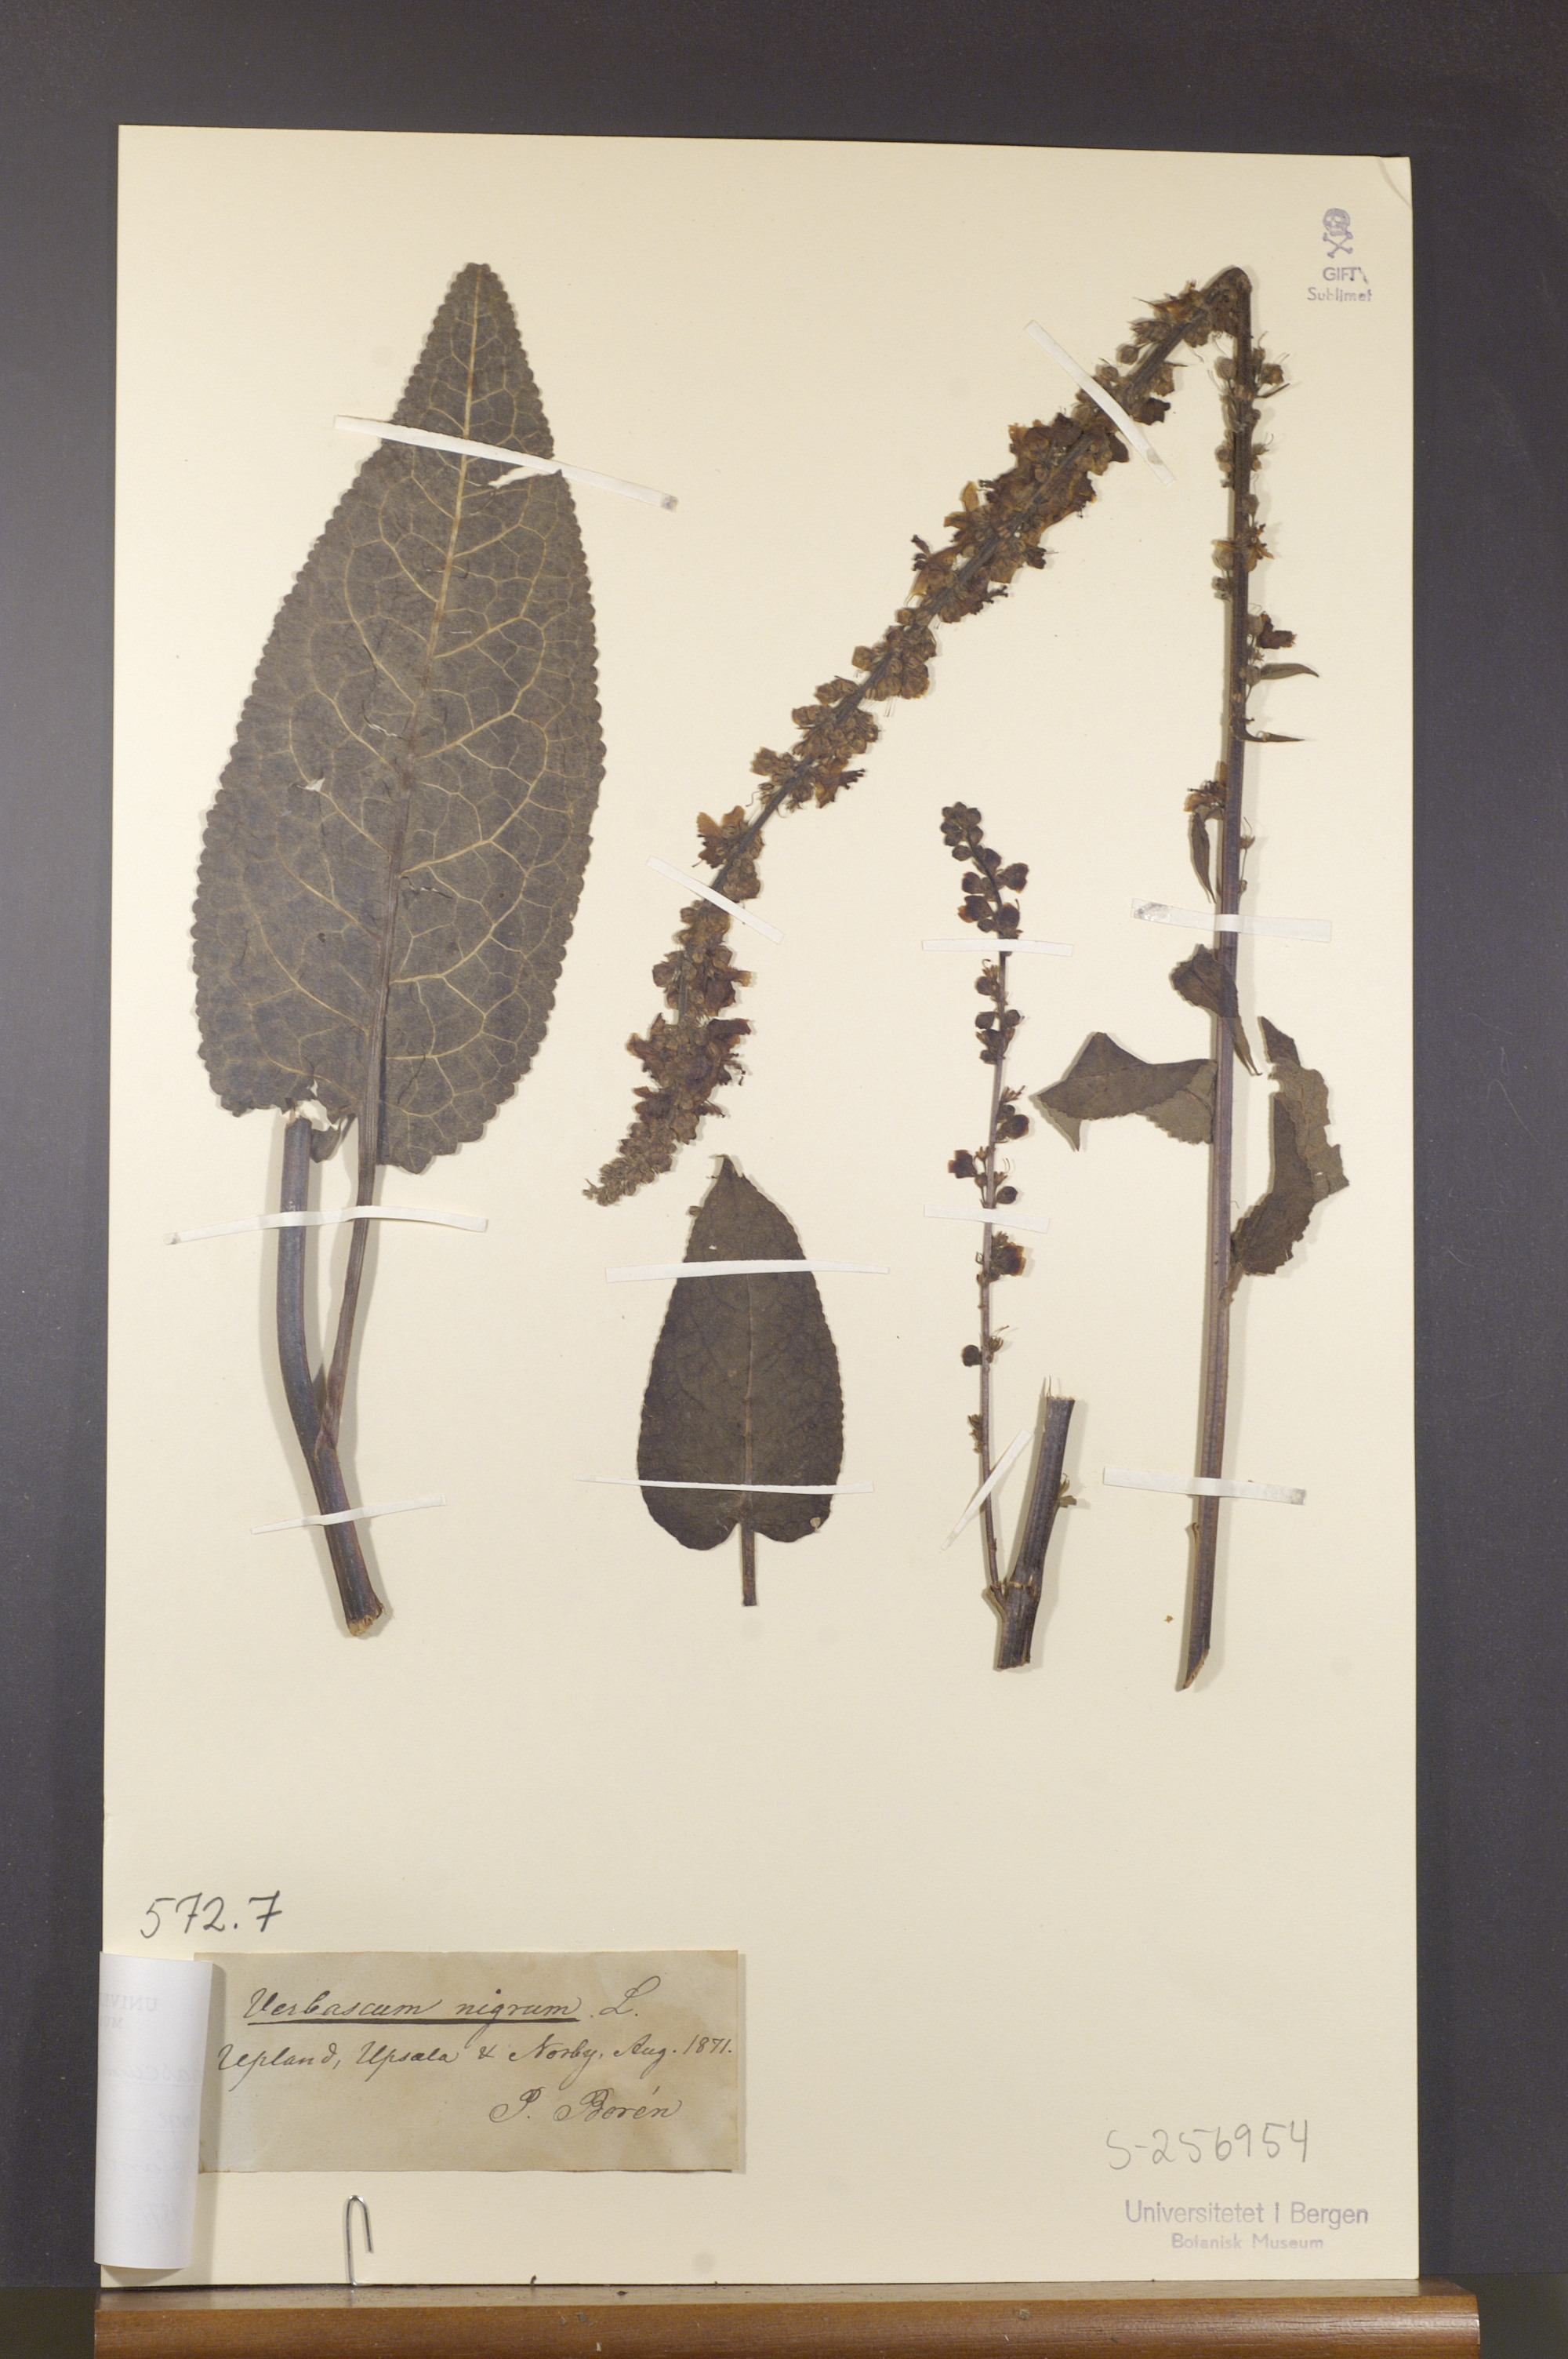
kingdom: Plantae
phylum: Tracheophyta
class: Magnoliopsida
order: Lamiales
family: Scrophulariaceae
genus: Verbascum
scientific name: Verbascum nigrum
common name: Dark mullein
